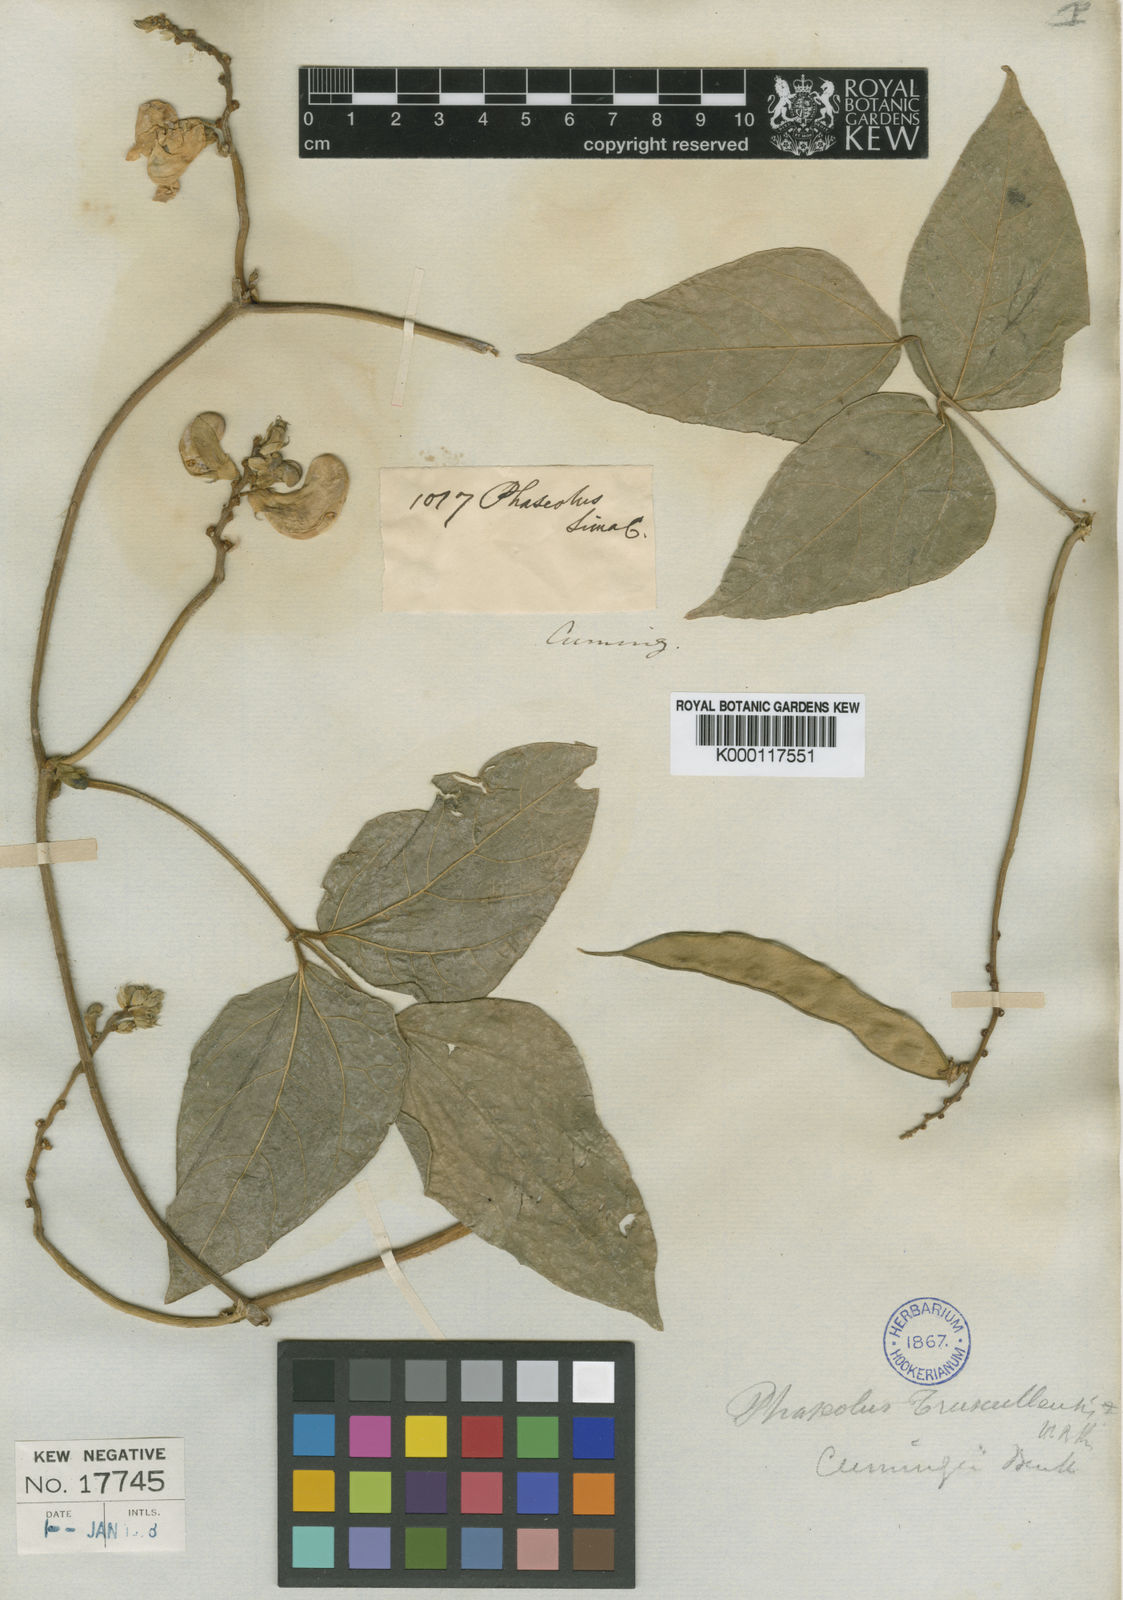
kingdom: Plantae
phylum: Tracheophyta
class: Magnoliopsida
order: Fabales
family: Fabaceae
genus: Vigna
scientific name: Vigna
